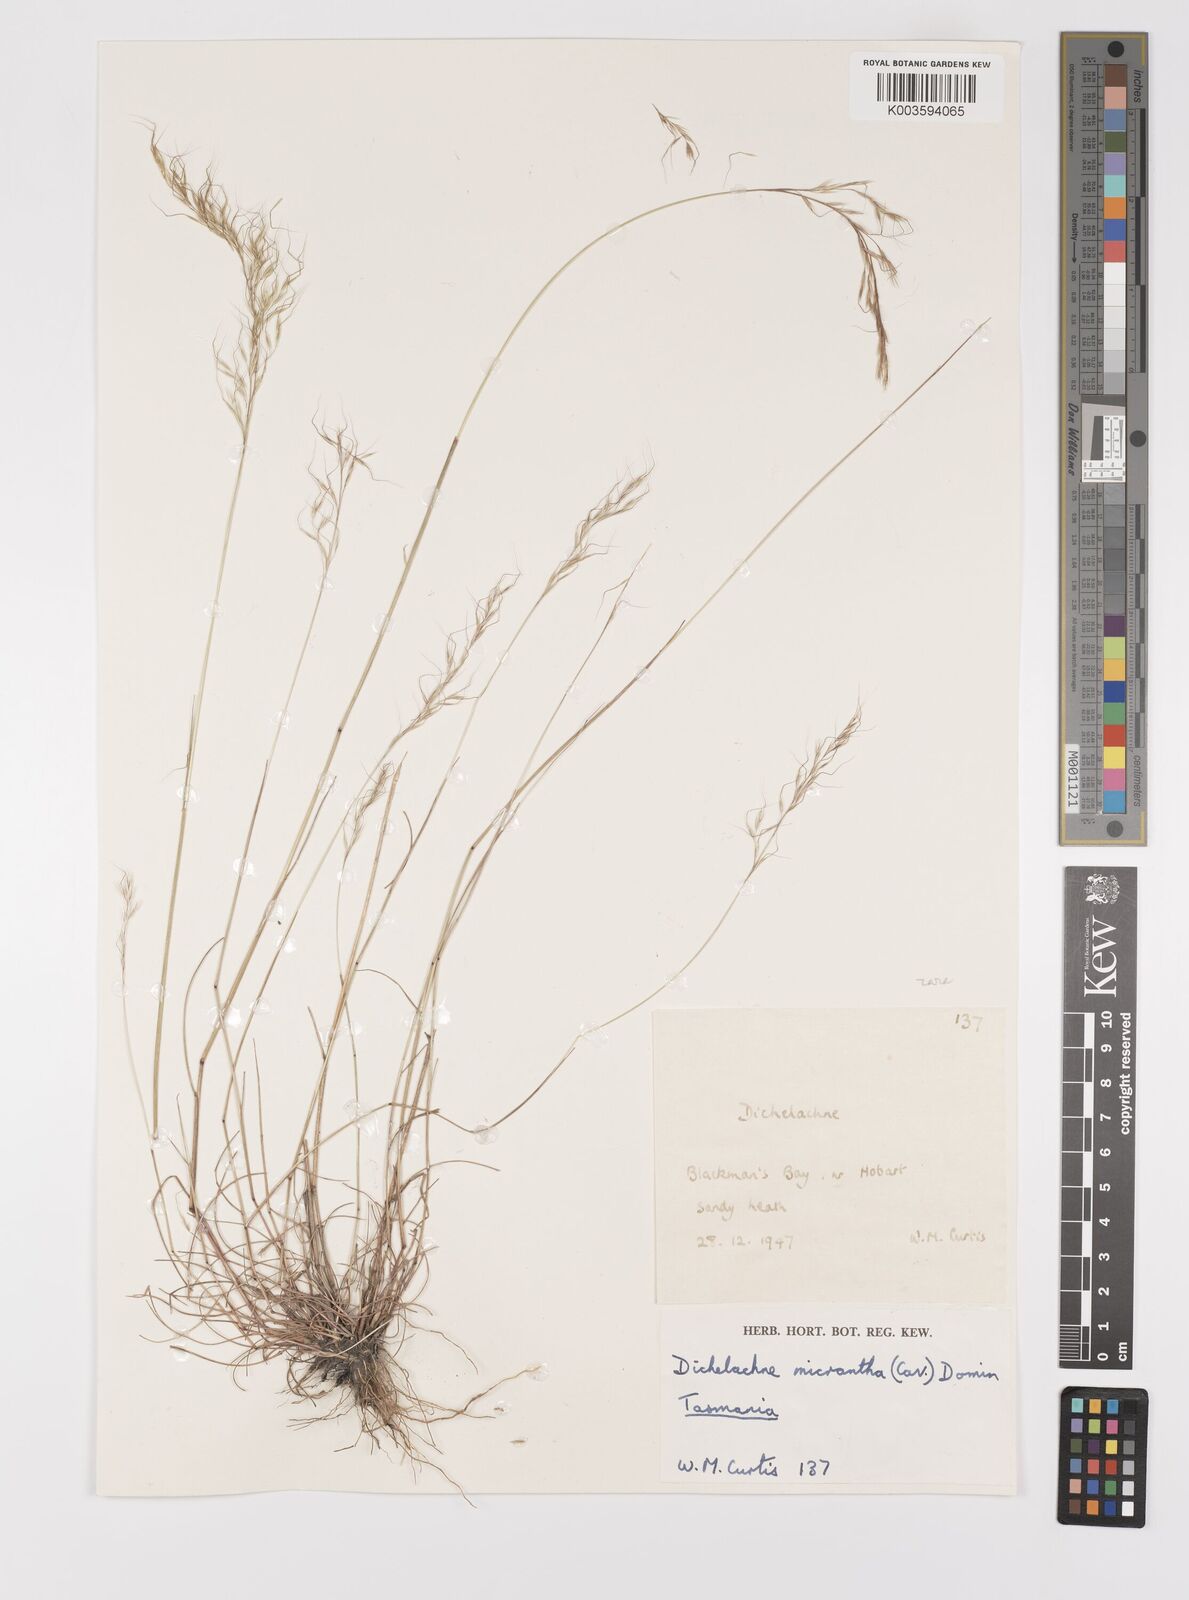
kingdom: Plantae
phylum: Tracheophyta
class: Liliopsida
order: Poales
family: Poaceae
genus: Dichelachne
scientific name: Dichelachne rara
